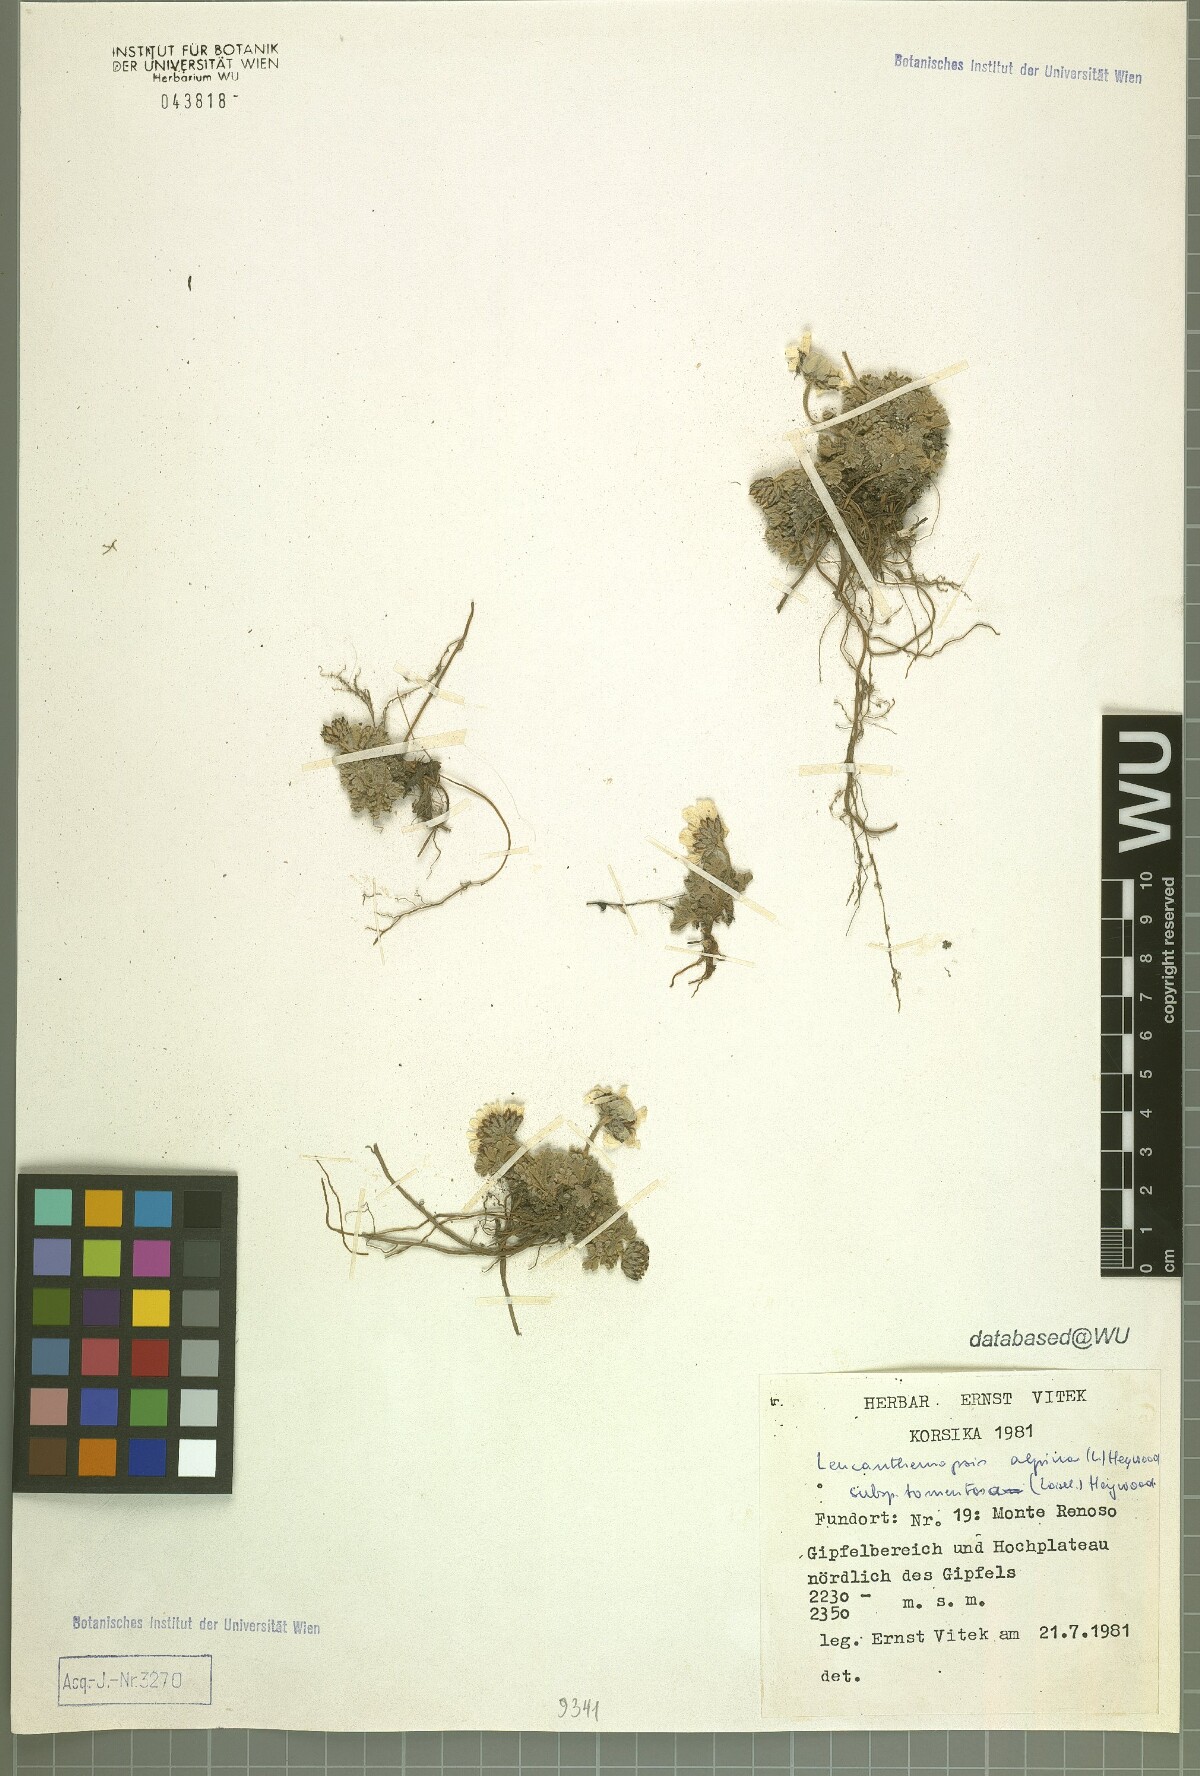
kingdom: Plantae
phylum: Tracheophyta
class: Magnoliopsida
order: Asterales
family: Asteraceae
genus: Leucanthemopsis
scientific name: Leucanthemopsis alpina
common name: Alpine moon daisy
